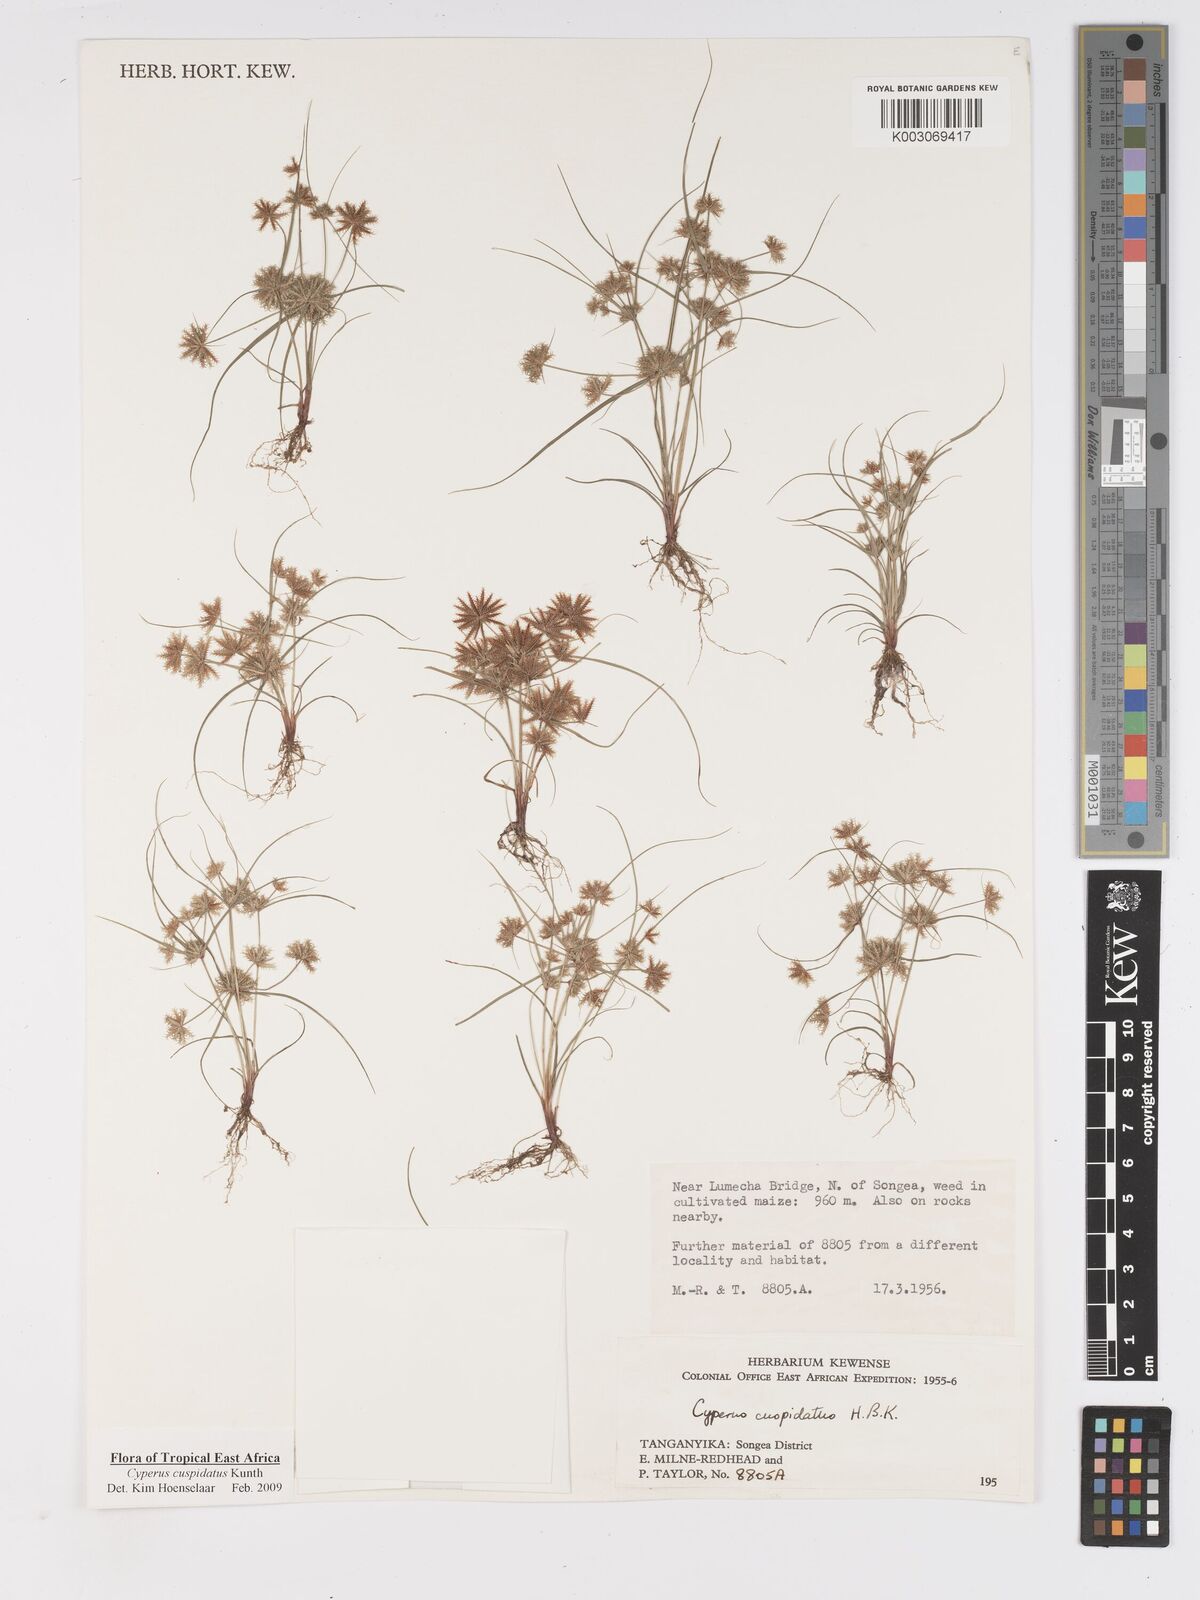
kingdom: Plantae
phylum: Tracheophyta
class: Liliopsida
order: Poales
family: Cyperaceae
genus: Cyperus
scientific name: Cyperus cuspidatus
